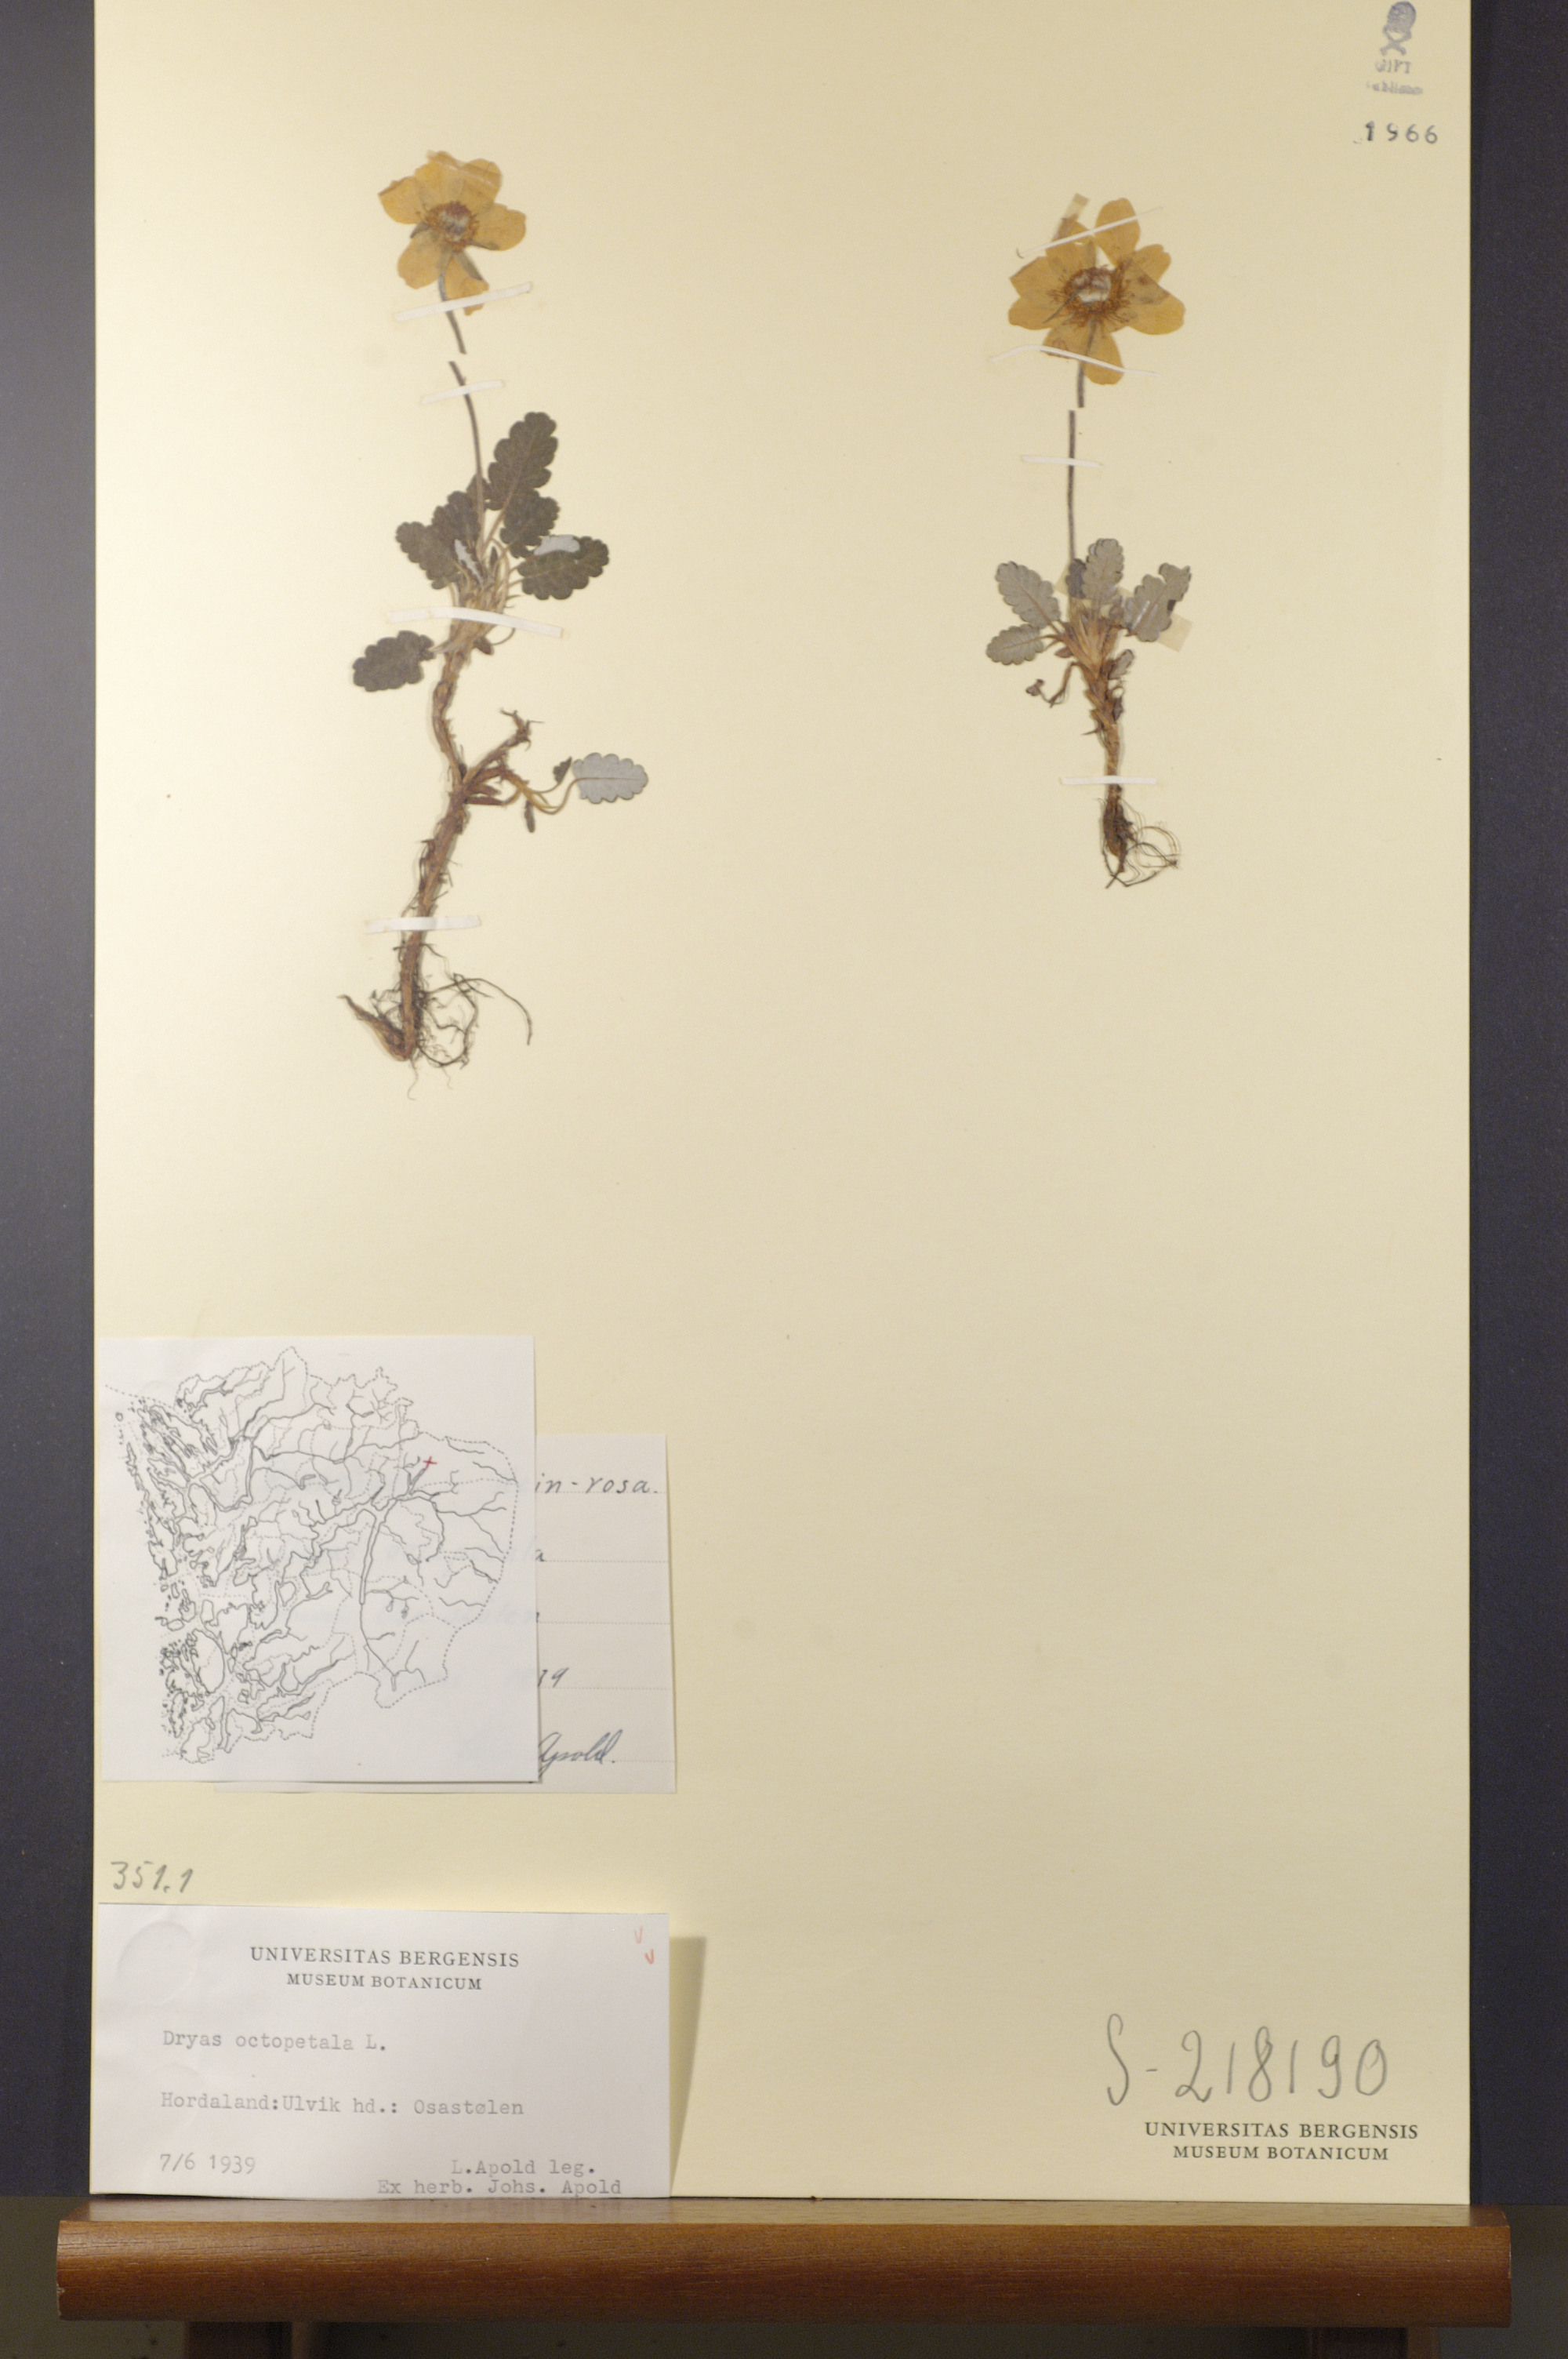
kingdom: Plantae
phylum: Tracheophyta
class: Magnoliopsida
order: Rosales
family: Rosaceae
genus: Dryas
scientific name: Dryas octopetala
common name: Eight-petal mountain-avens
